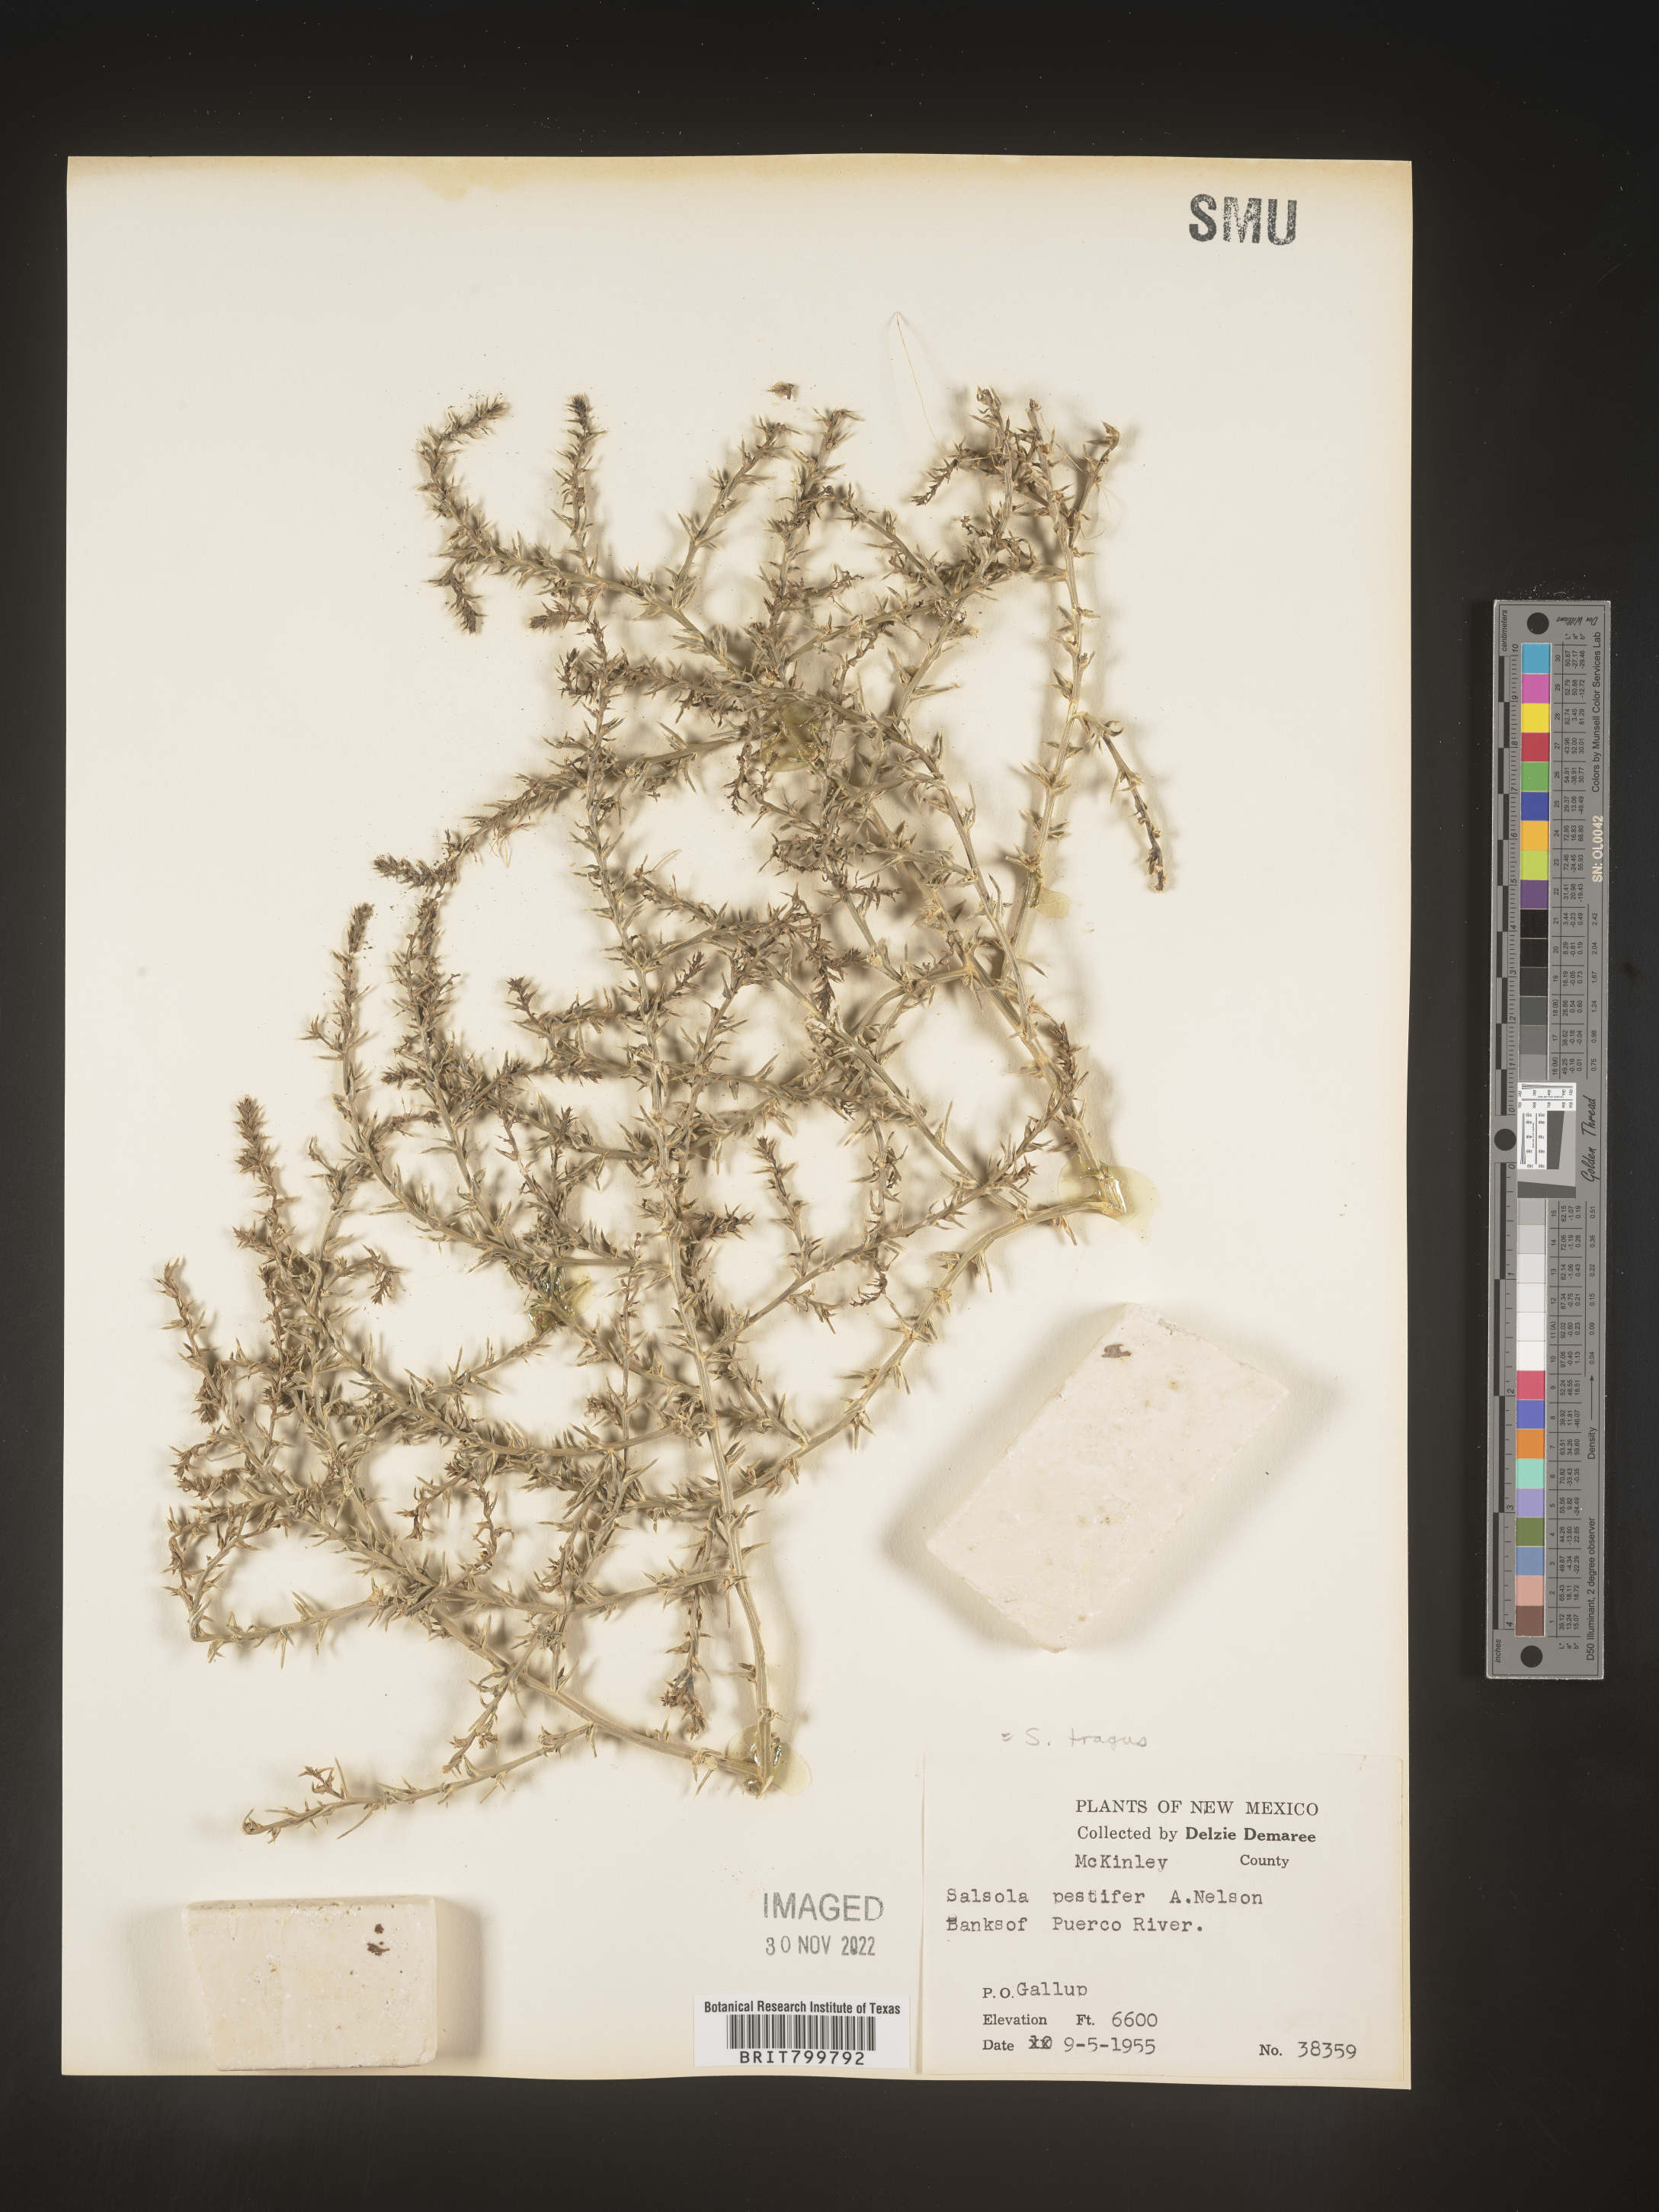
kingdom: Plantae
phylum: Tracheophyta
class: Magnoliopsida
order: Caryophyllales
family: Amaranthaceae
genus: Salsola
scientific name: Salsola tragus
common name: Prickly russian thistle
